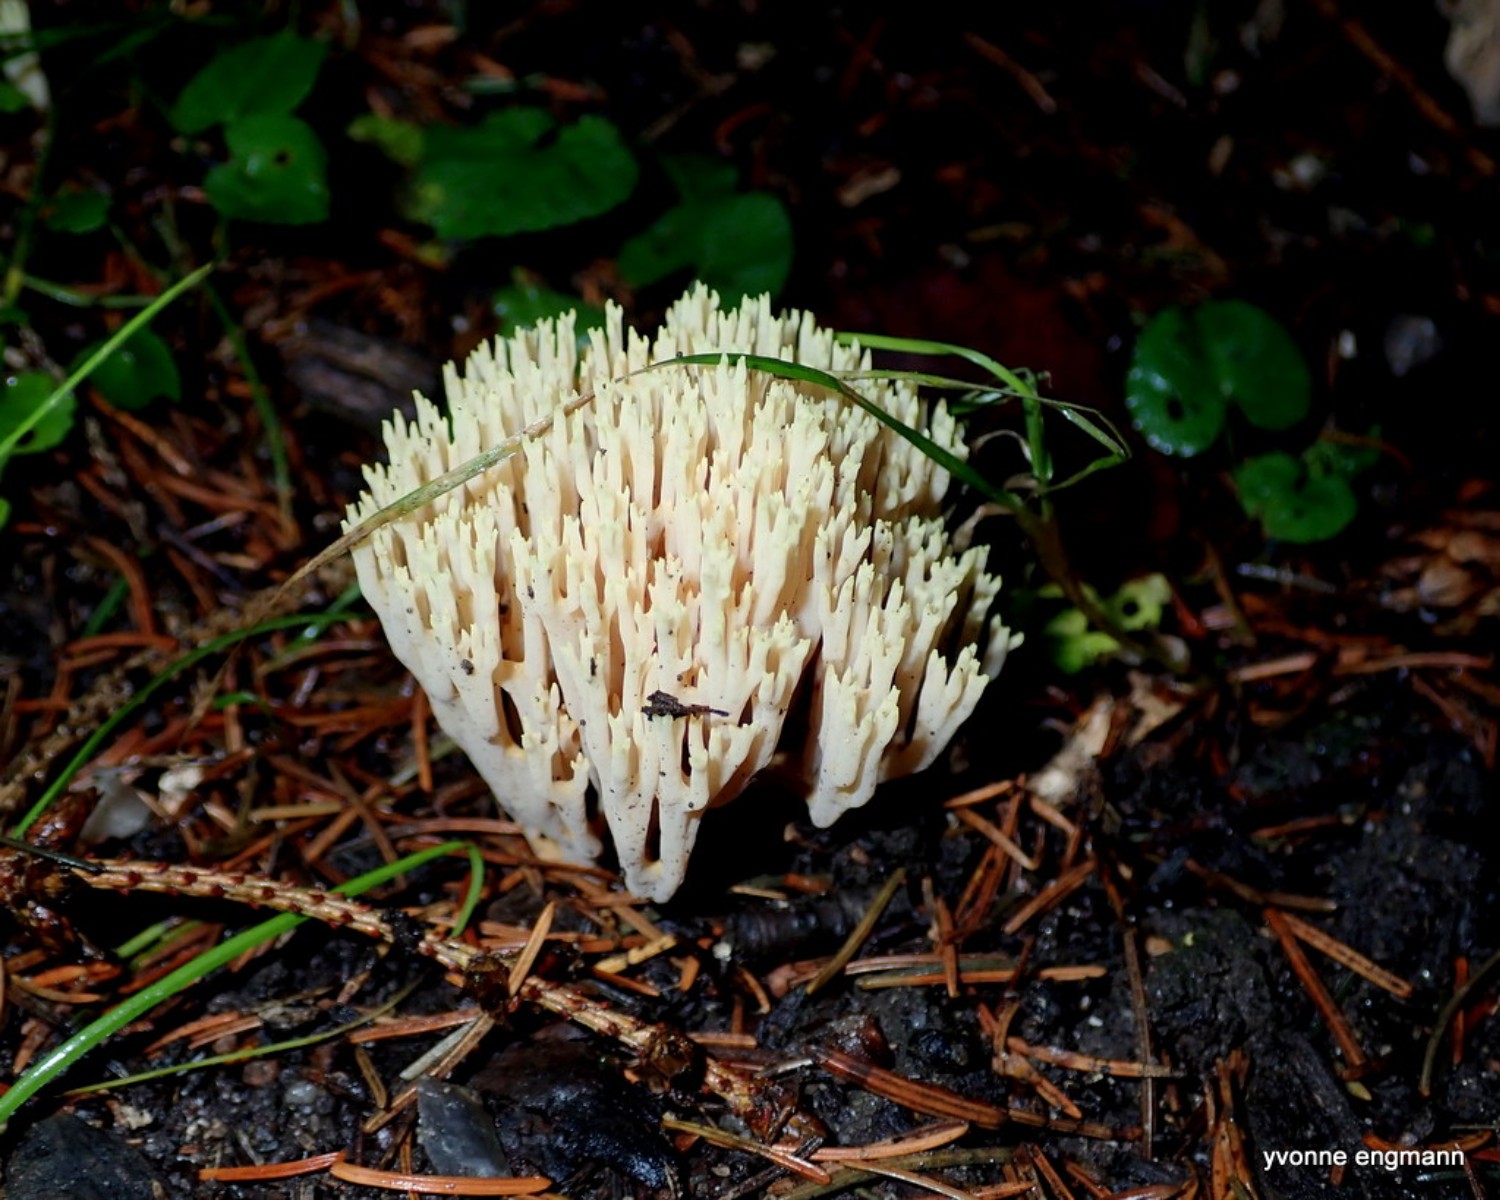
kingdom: Fungi
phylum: Basidiomycota
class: Agaricomycetes
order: Gomphales
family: Gomphaceae
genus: Ramaria
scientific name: Ramaria stricta
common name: rank koralsvamp
